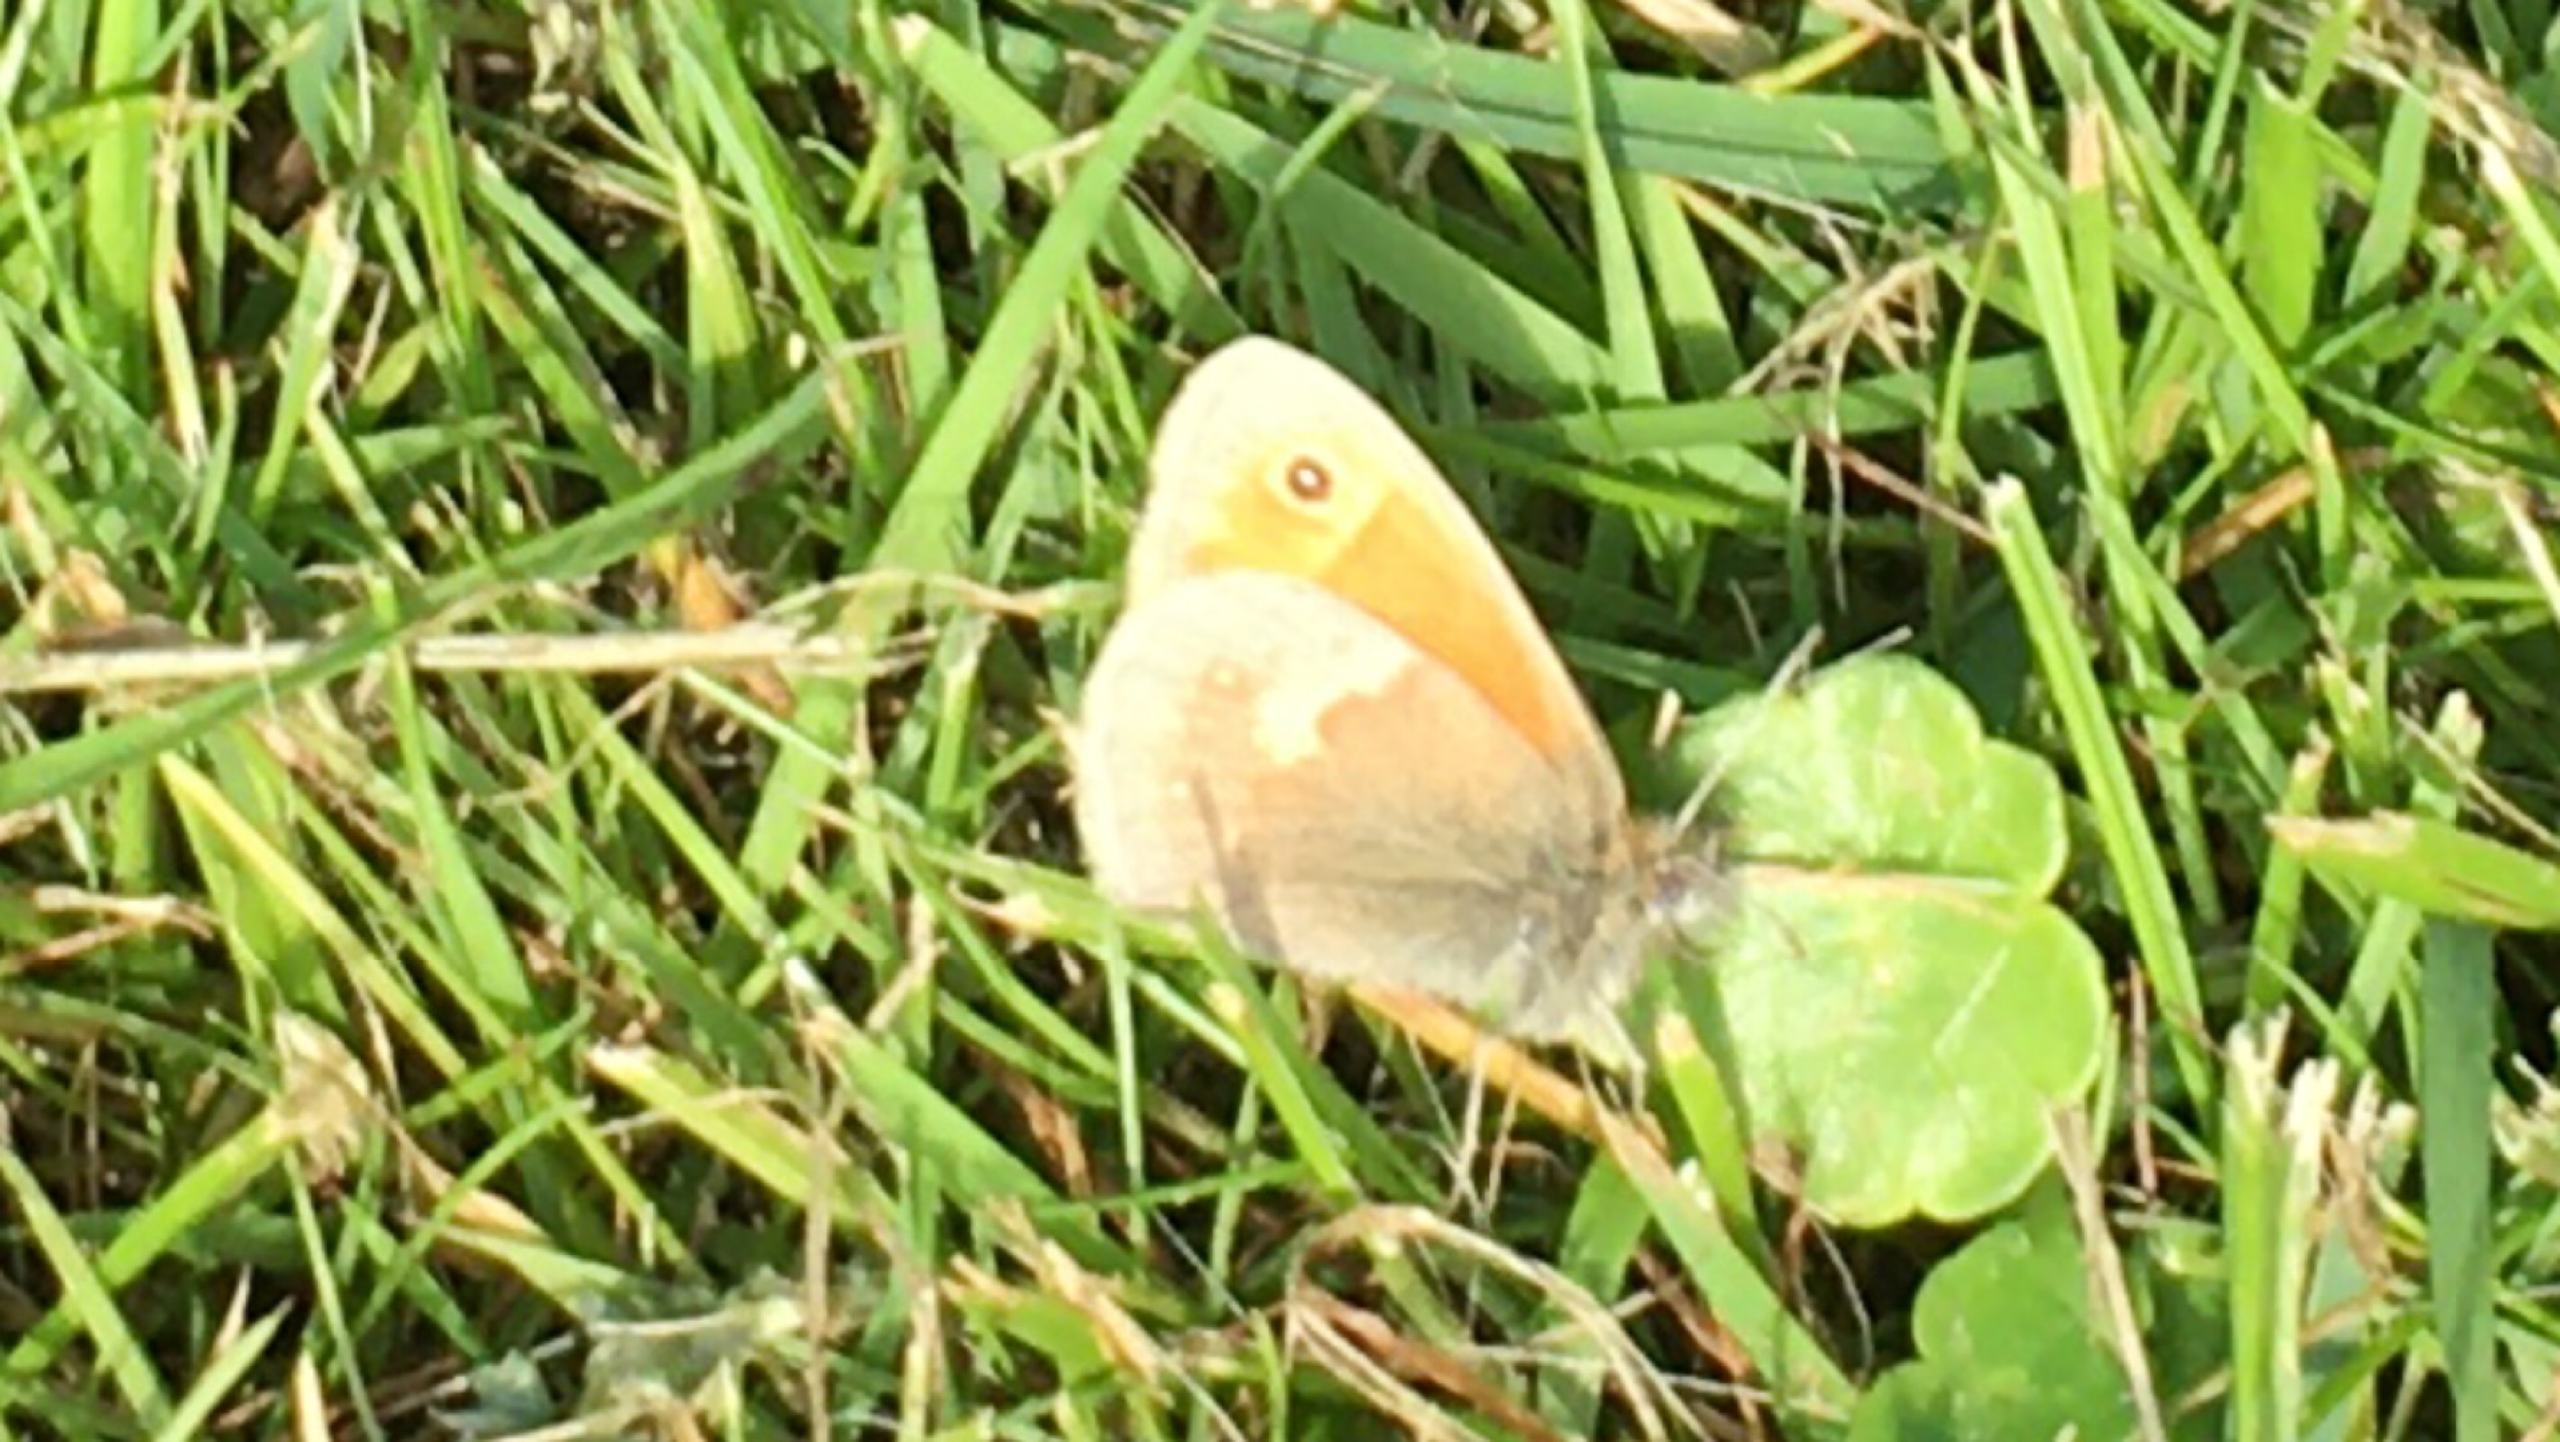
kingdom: Animalia
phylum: Arthropoda
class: Insecta
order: Lepidoptera
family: Nymphalidae
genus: Coenonympha
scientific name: Coenonympha pamphilus
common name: Okkergul randøje
